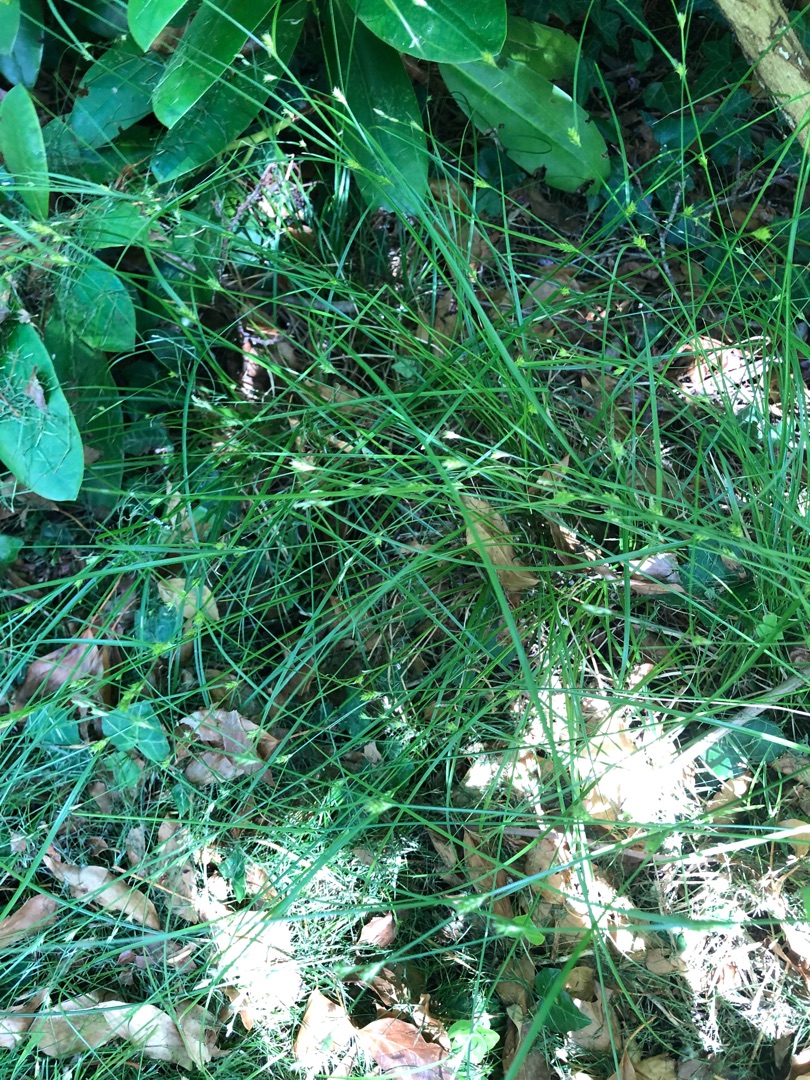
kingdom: Plantae
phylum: Tracheophyta
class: Liliopsida
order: Poales
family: Cyperaceae
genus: Carex
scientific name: Carex remota
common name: Akselblomstret star
